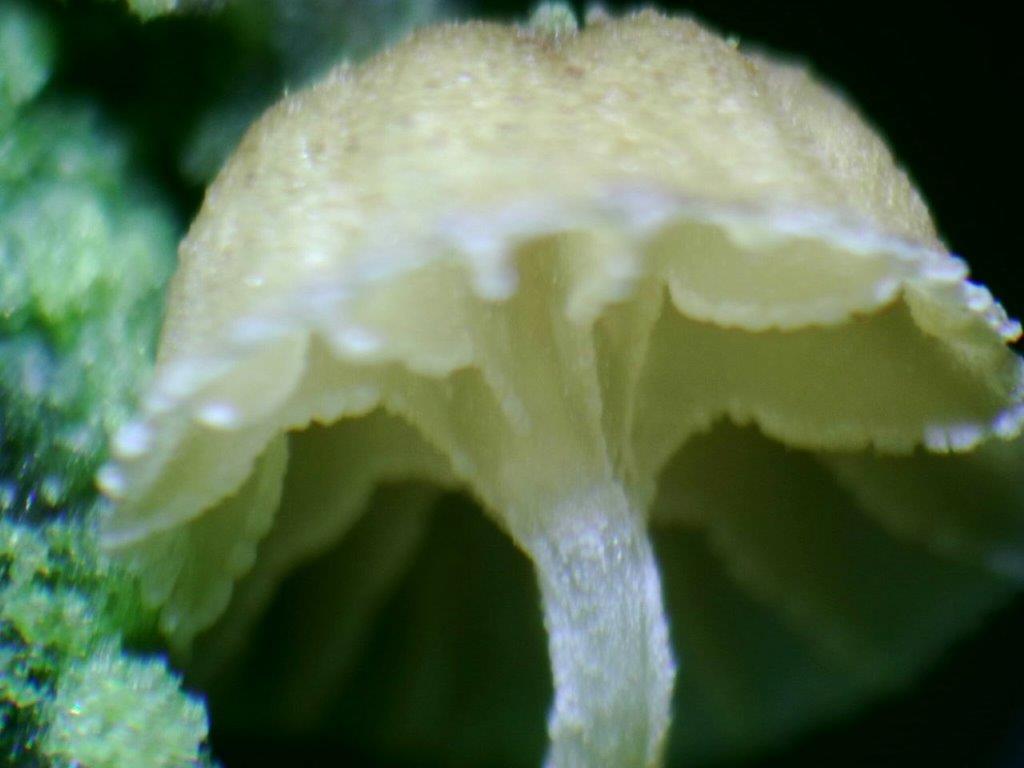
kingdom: Fungi
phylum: Basidiomycota
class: Agaricomycetes
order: Agaricales
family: Mycenaceae
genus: Mycena
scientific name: Mycena juniperina
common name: ene-Huesvamp
